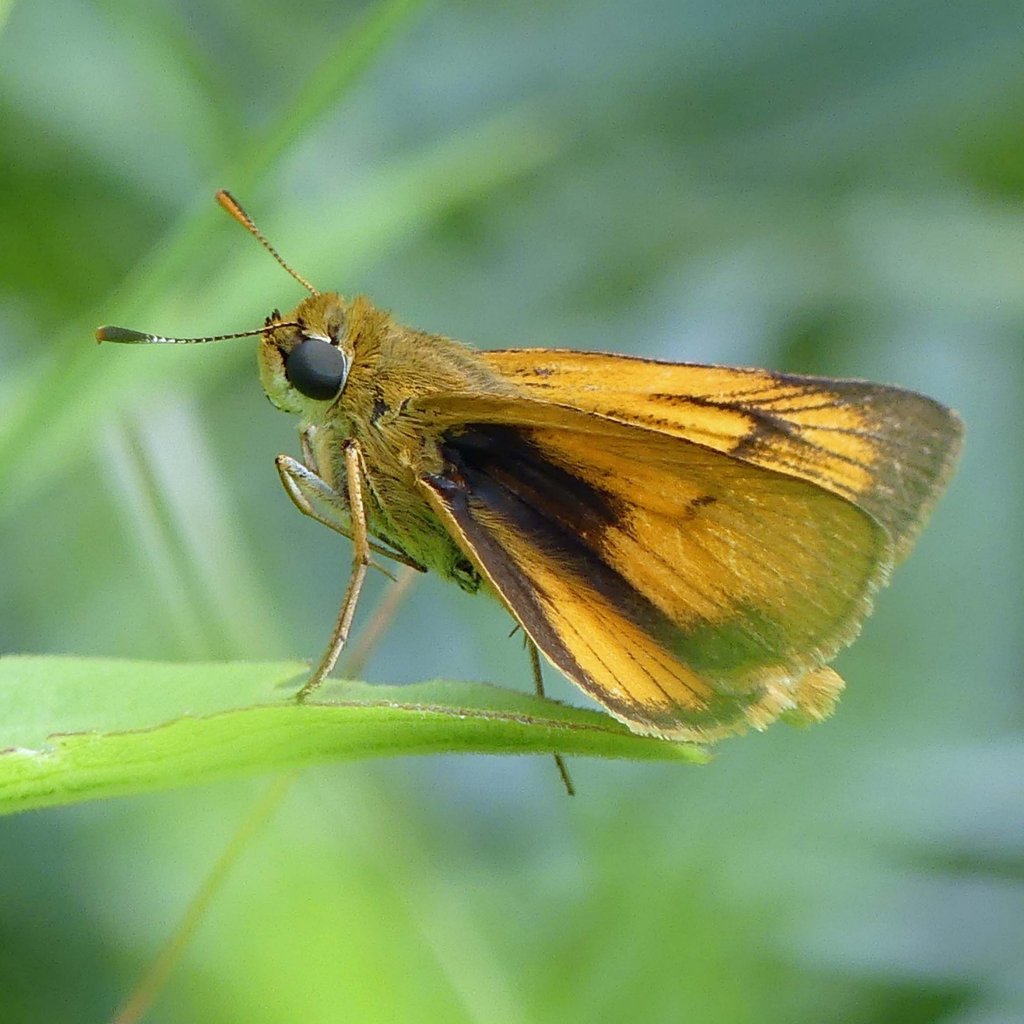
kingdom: Animalia
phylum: Arthropoda
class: Insecta
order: Lepidoptera
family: Hesperiidae
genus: Atrytone
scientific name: Atrytone delaware
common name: Delaware Skipper
